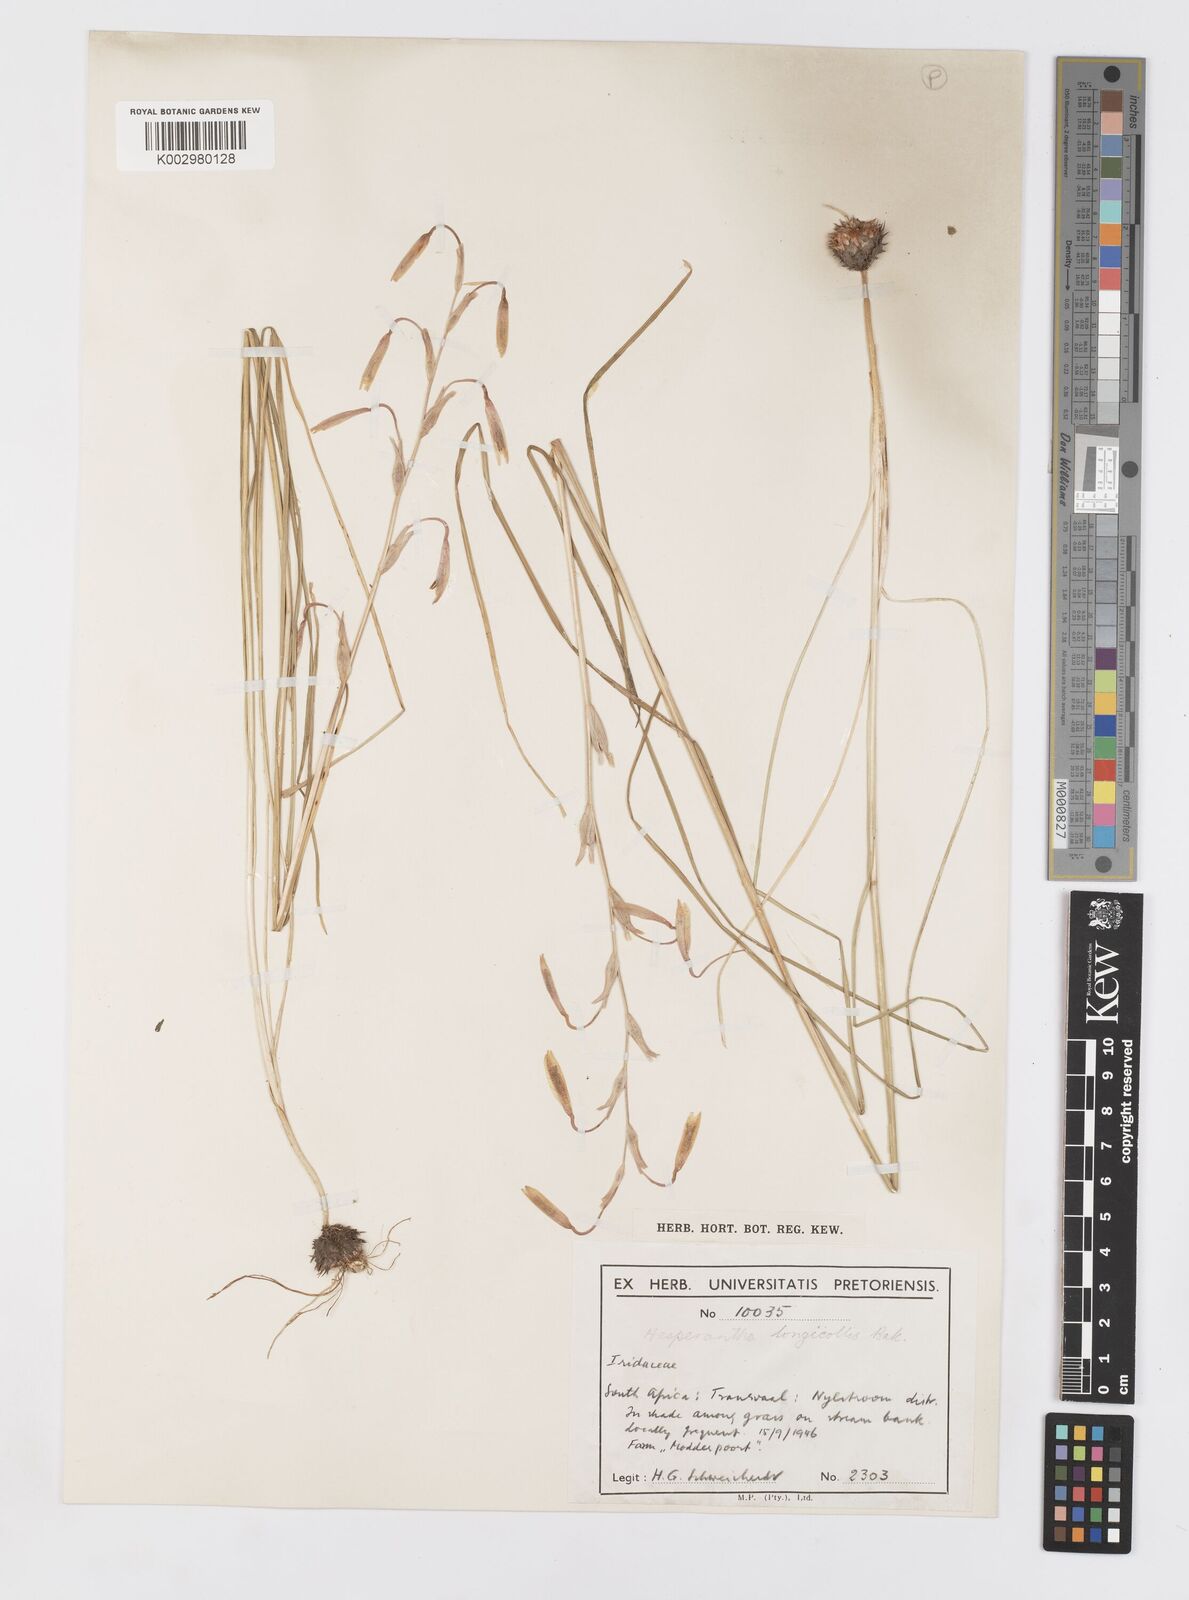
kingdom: Plantae
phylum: Tracheophyta
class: Liliopsida
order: Asparagales
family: Iridaceae
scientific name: Iridaceae
